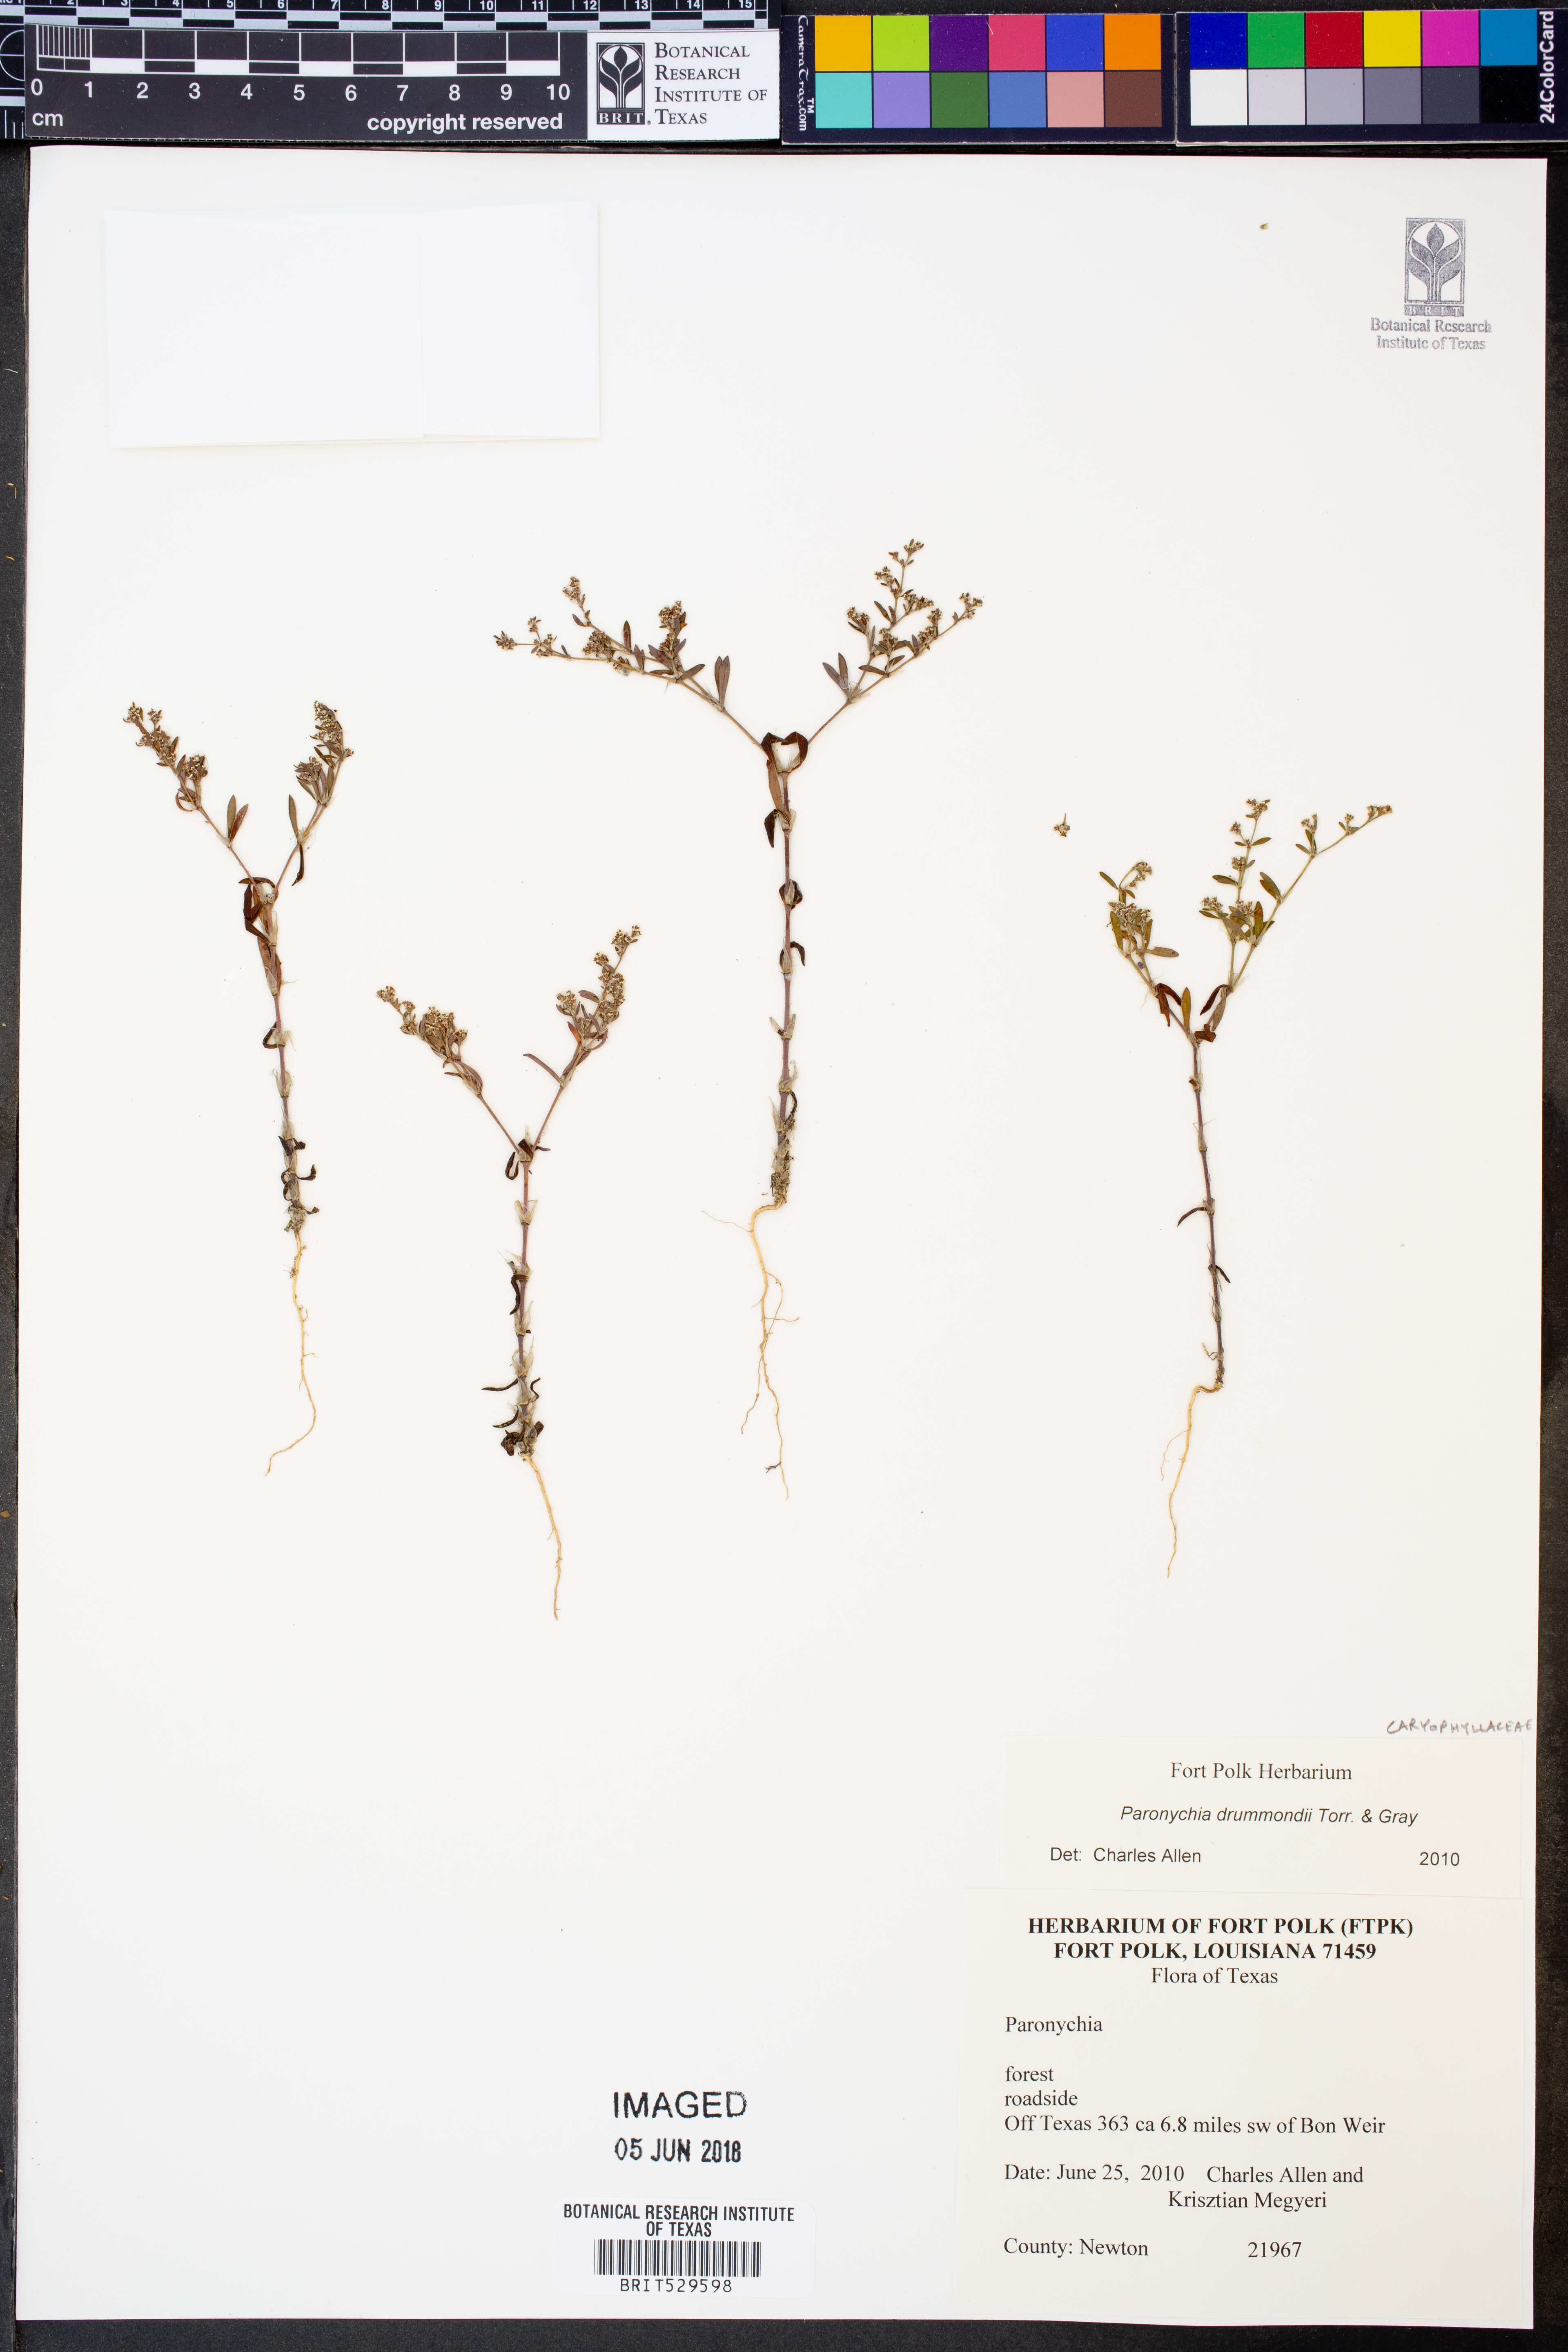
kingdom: Plantae
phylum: Tracheophyta
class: Magnoliopsida
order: Caryophyllales
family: Caryophyllaceae
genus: Paronychia
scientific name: Paronychia drummondii
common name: Drummond's nailwort
